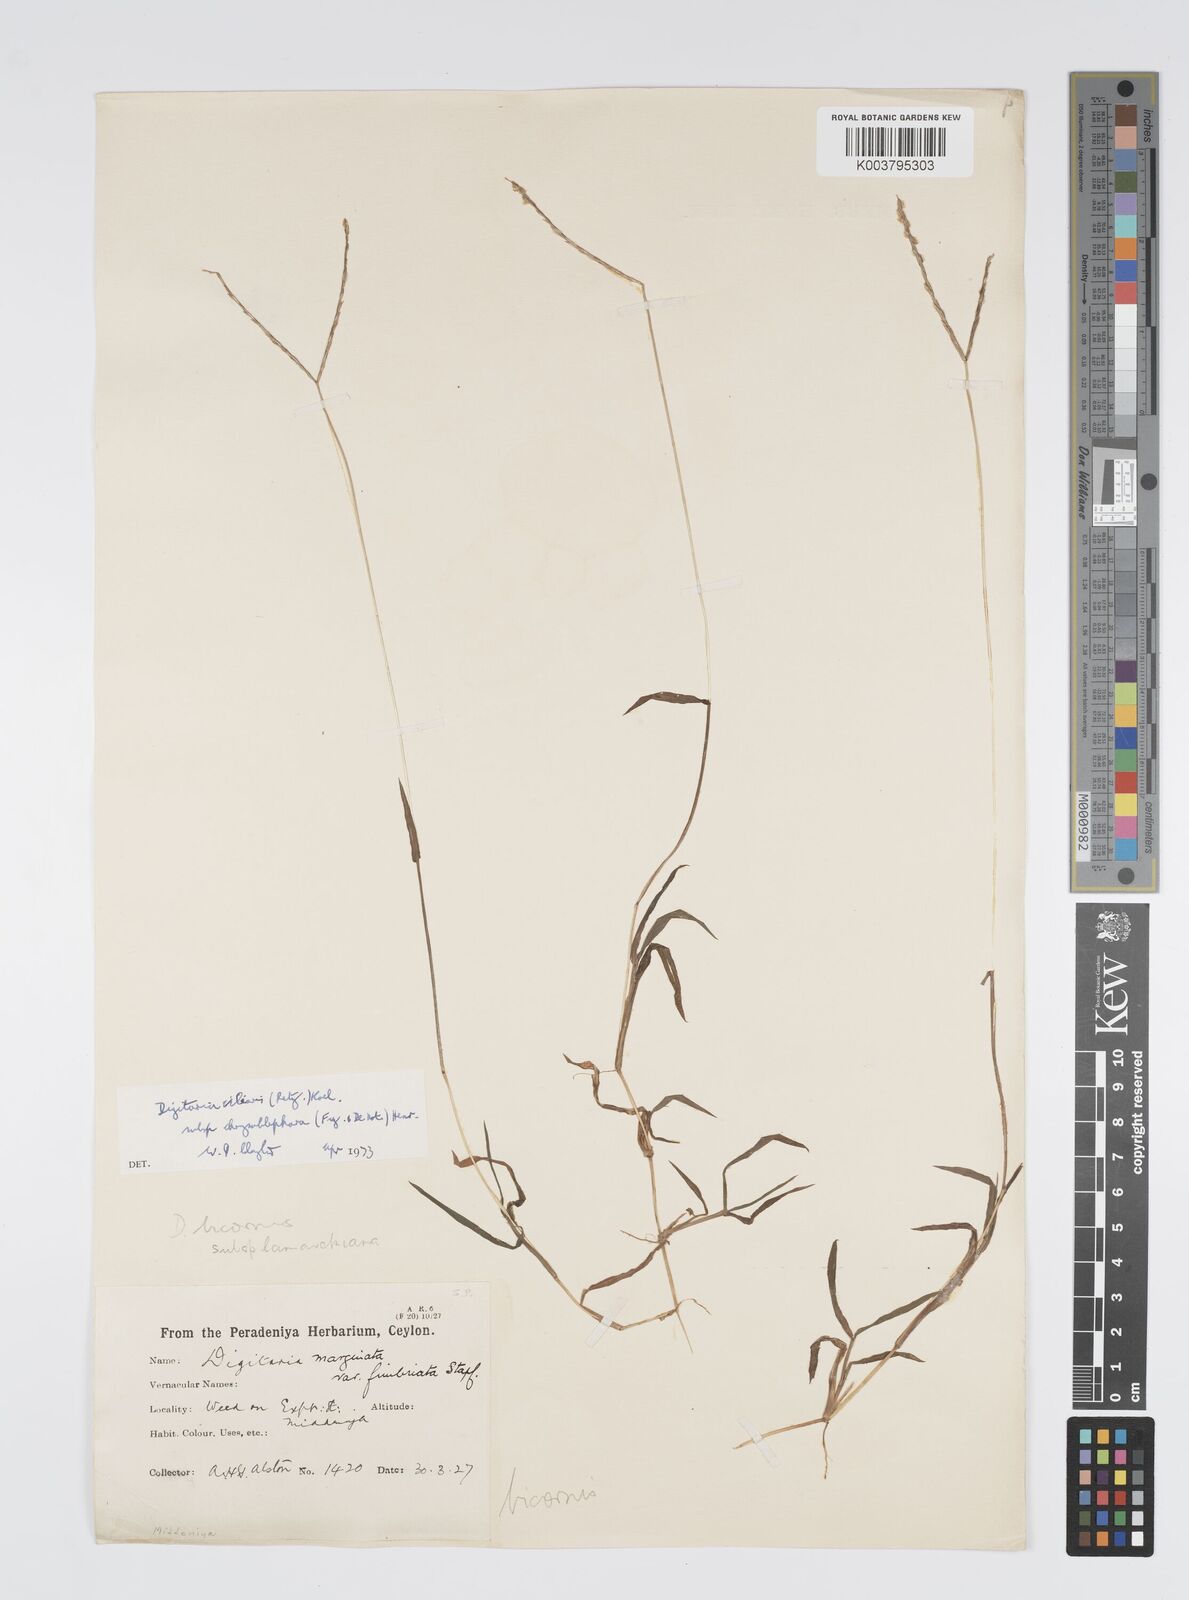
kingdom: Plantae
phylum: Tracheophyta
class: Liliopsida
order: Poales
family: Poaceae
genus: Digitaria
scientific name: Digitaria ciliaris
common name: Tropical finger-grass
